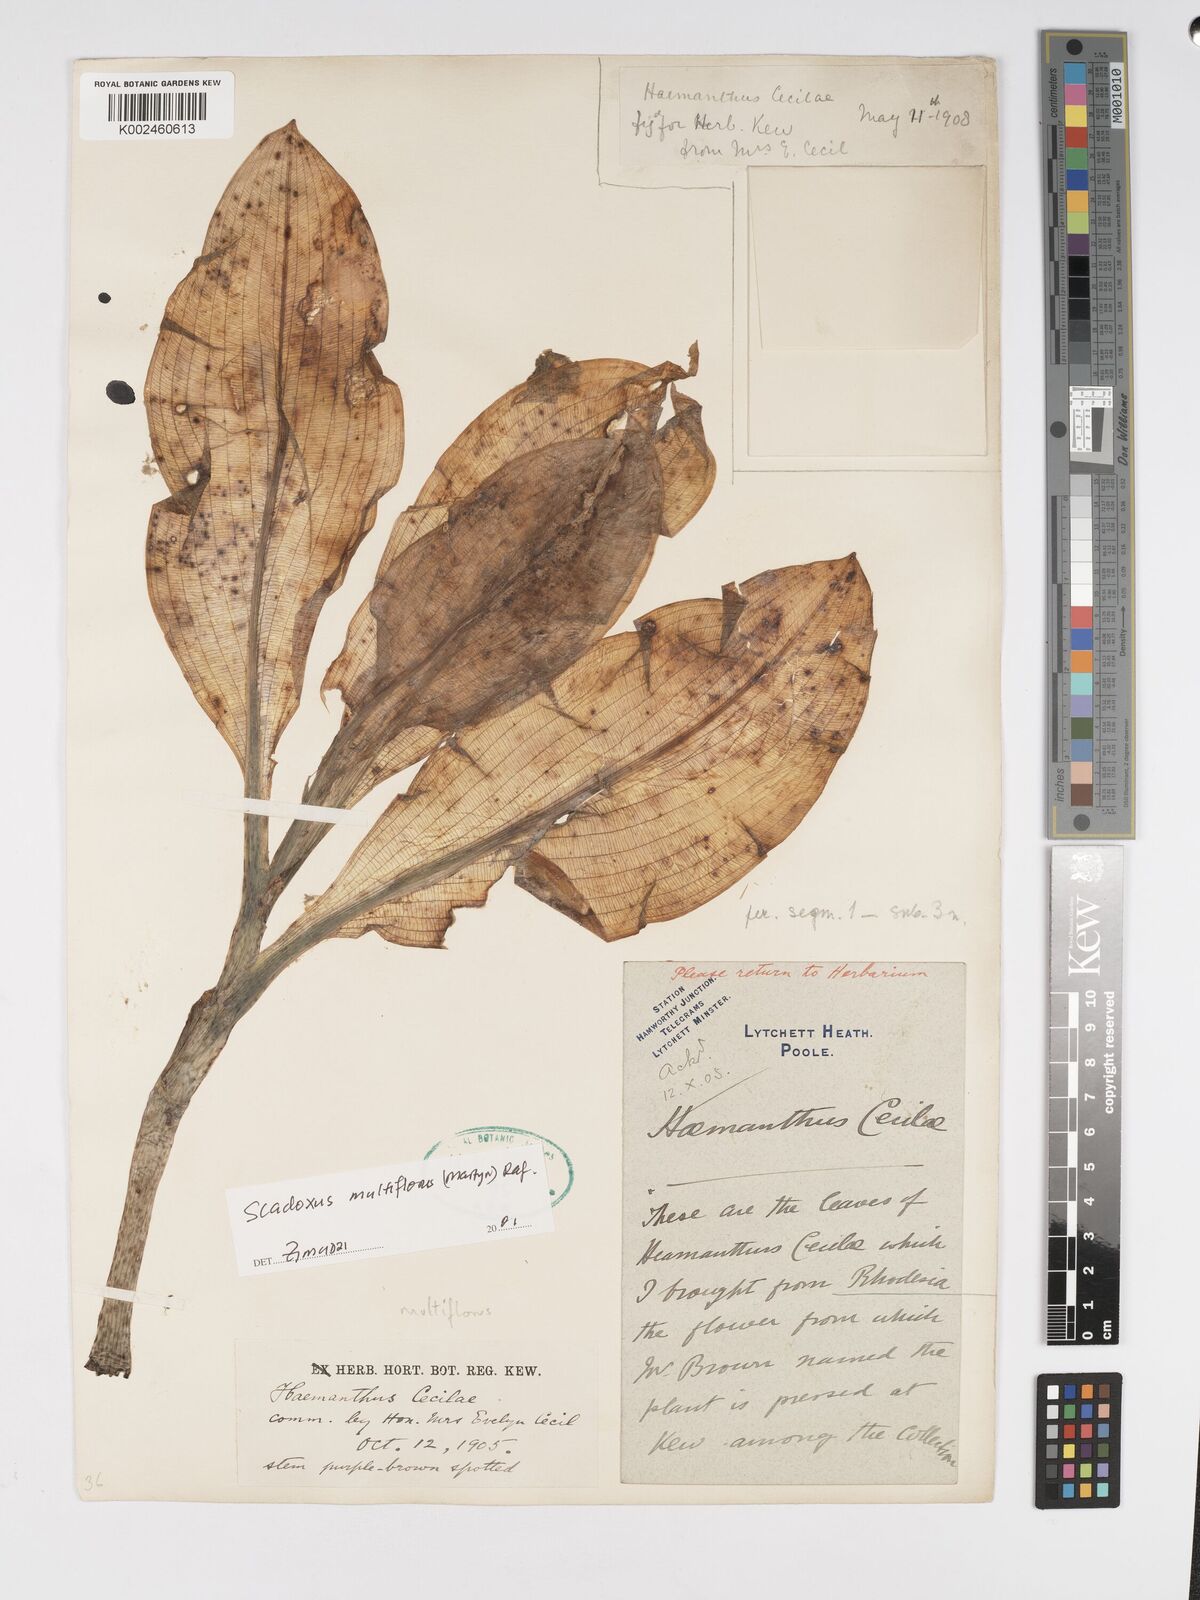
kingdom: Plantae
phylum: Tracheophyta
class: Liliopsida
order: Asparagales
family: Amaryllidaceae
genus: Scadoxus
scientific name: Scadoxus multiflorus
